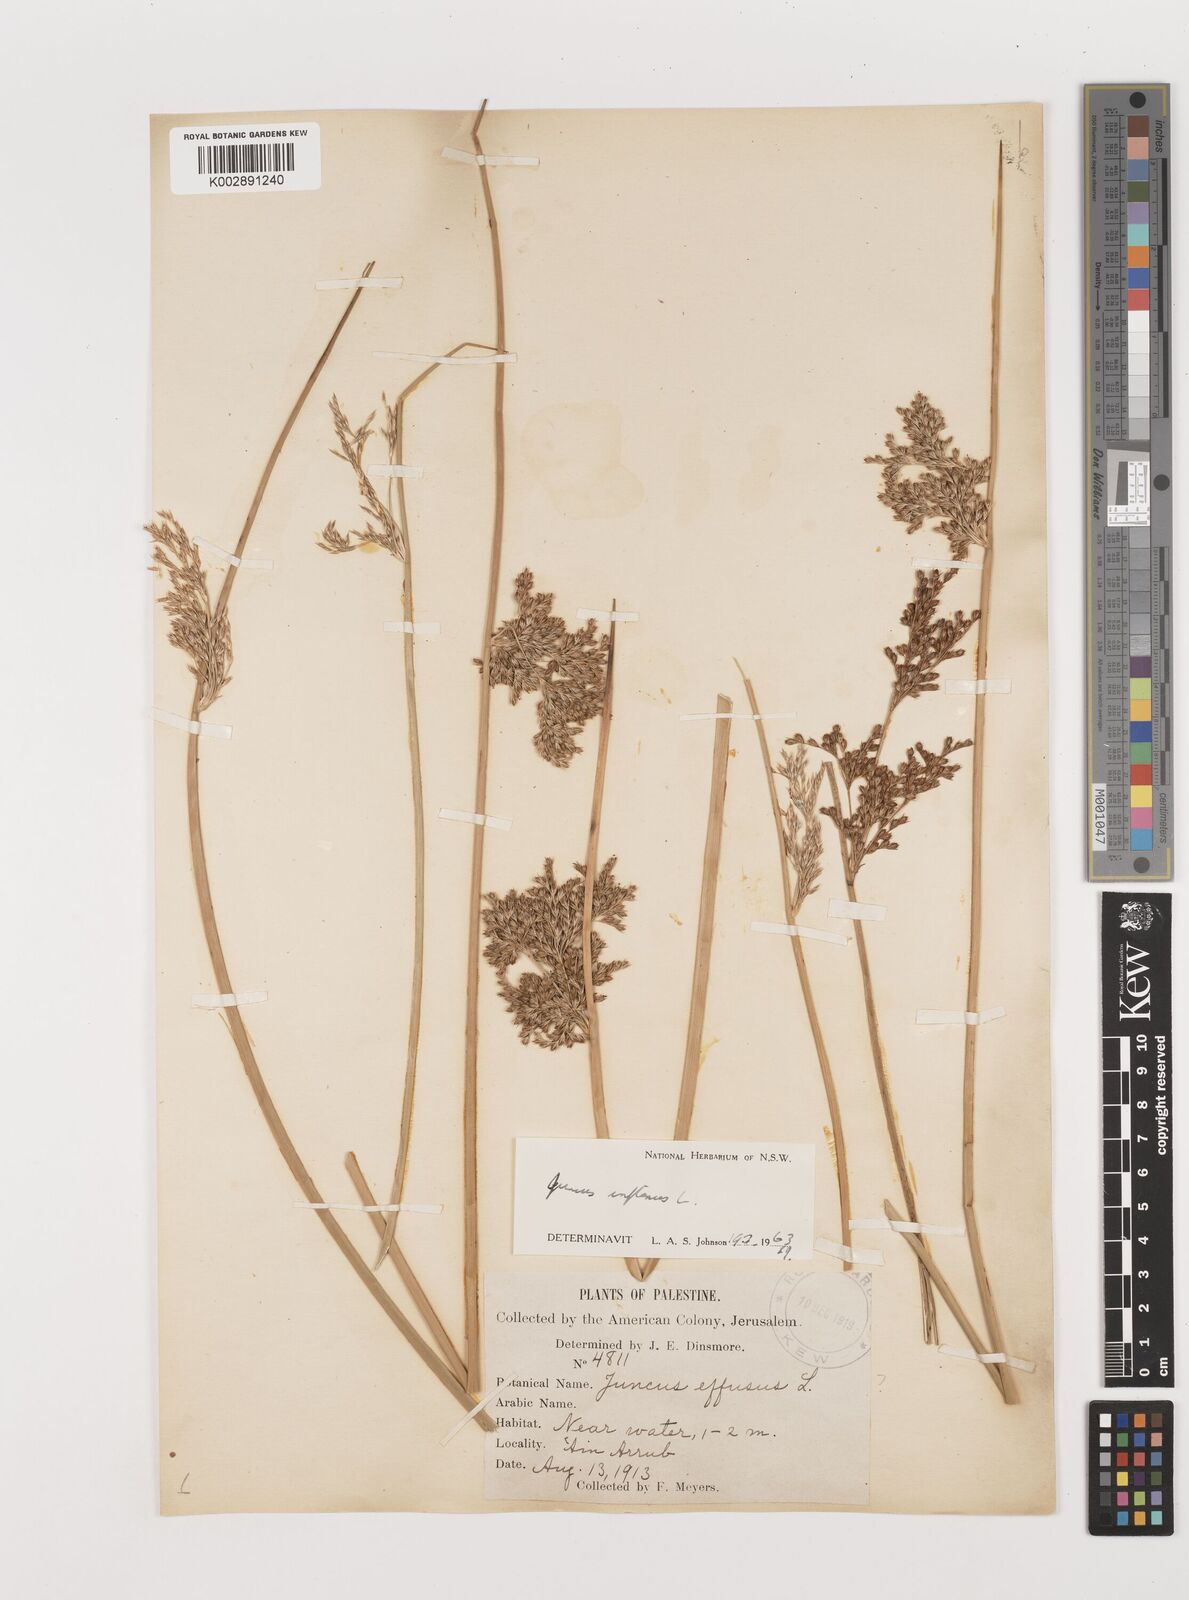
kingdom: Plantae
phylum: Tracheophyta
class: Liliopsida
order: Poales
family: Juncaceae
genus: Juncus
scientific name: Juncus inflexus
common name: Hard rush
